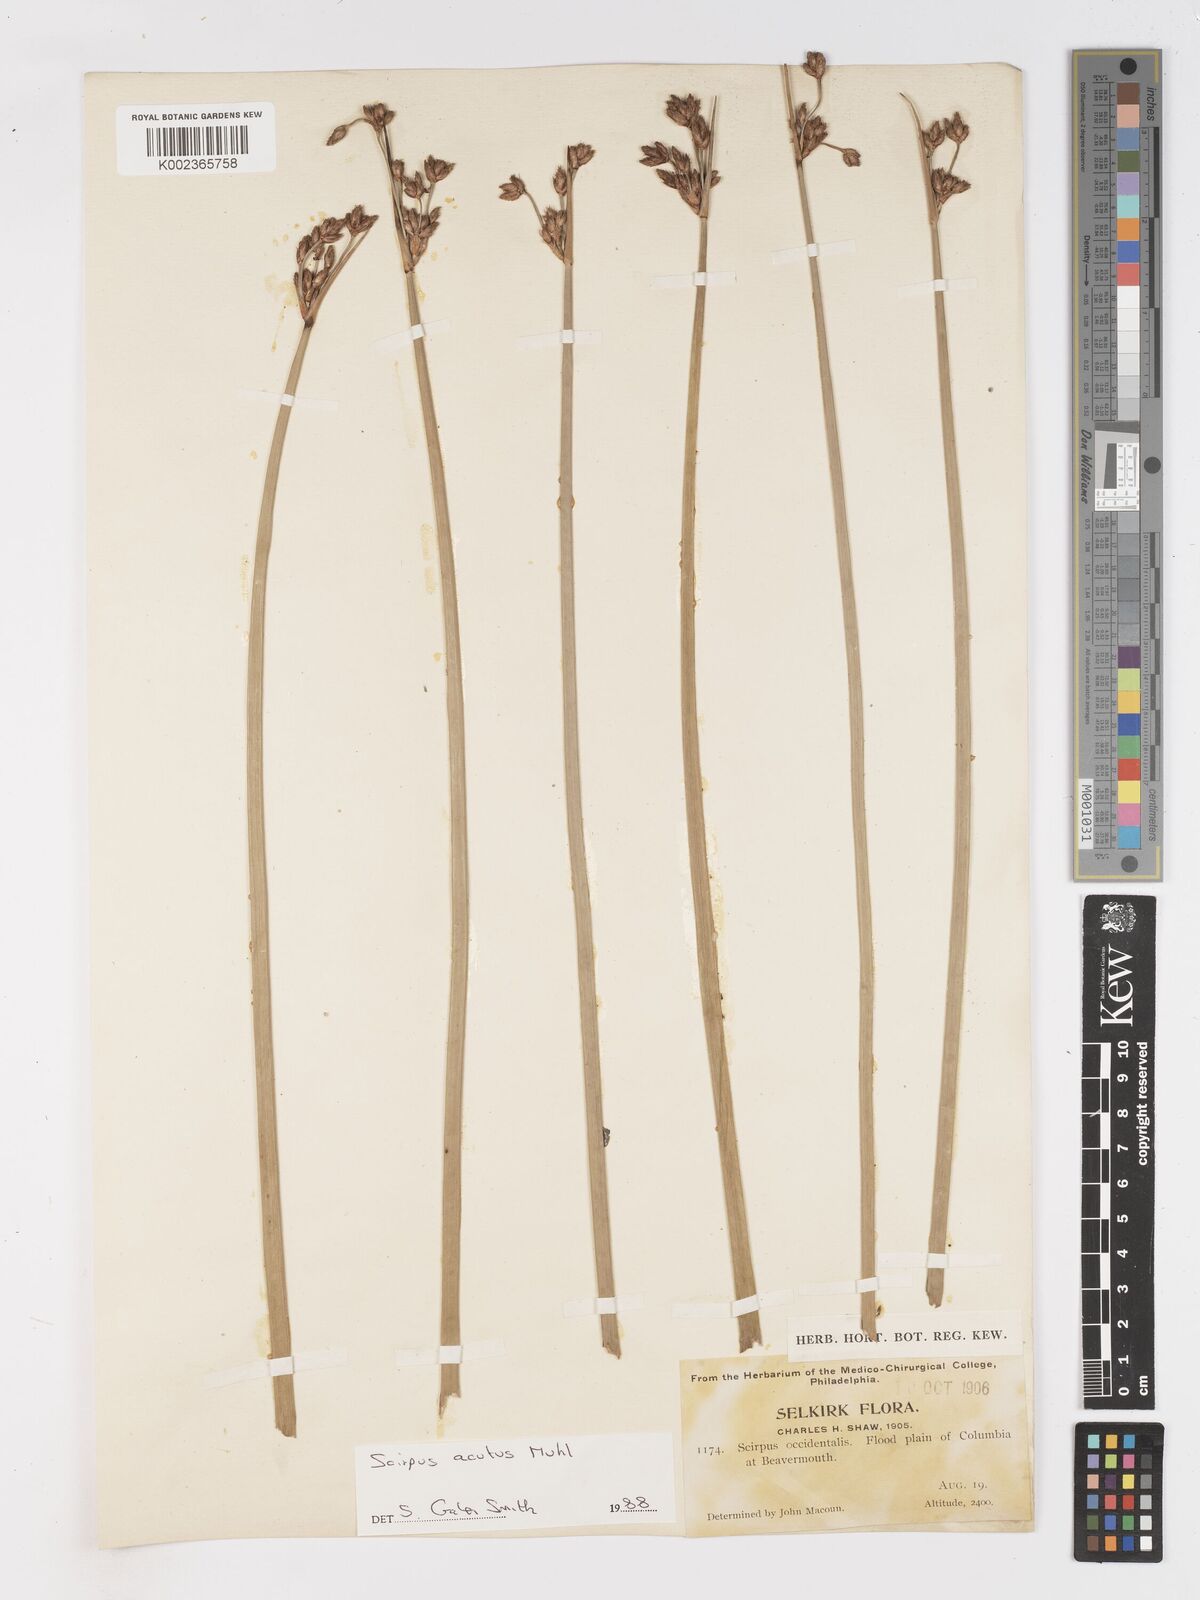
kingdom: Plantae
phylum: Tracheophyta
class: Liliopsida
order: Poales
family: Cyperaceae
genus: Schoenoplectus
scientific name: Schoenoplectus
